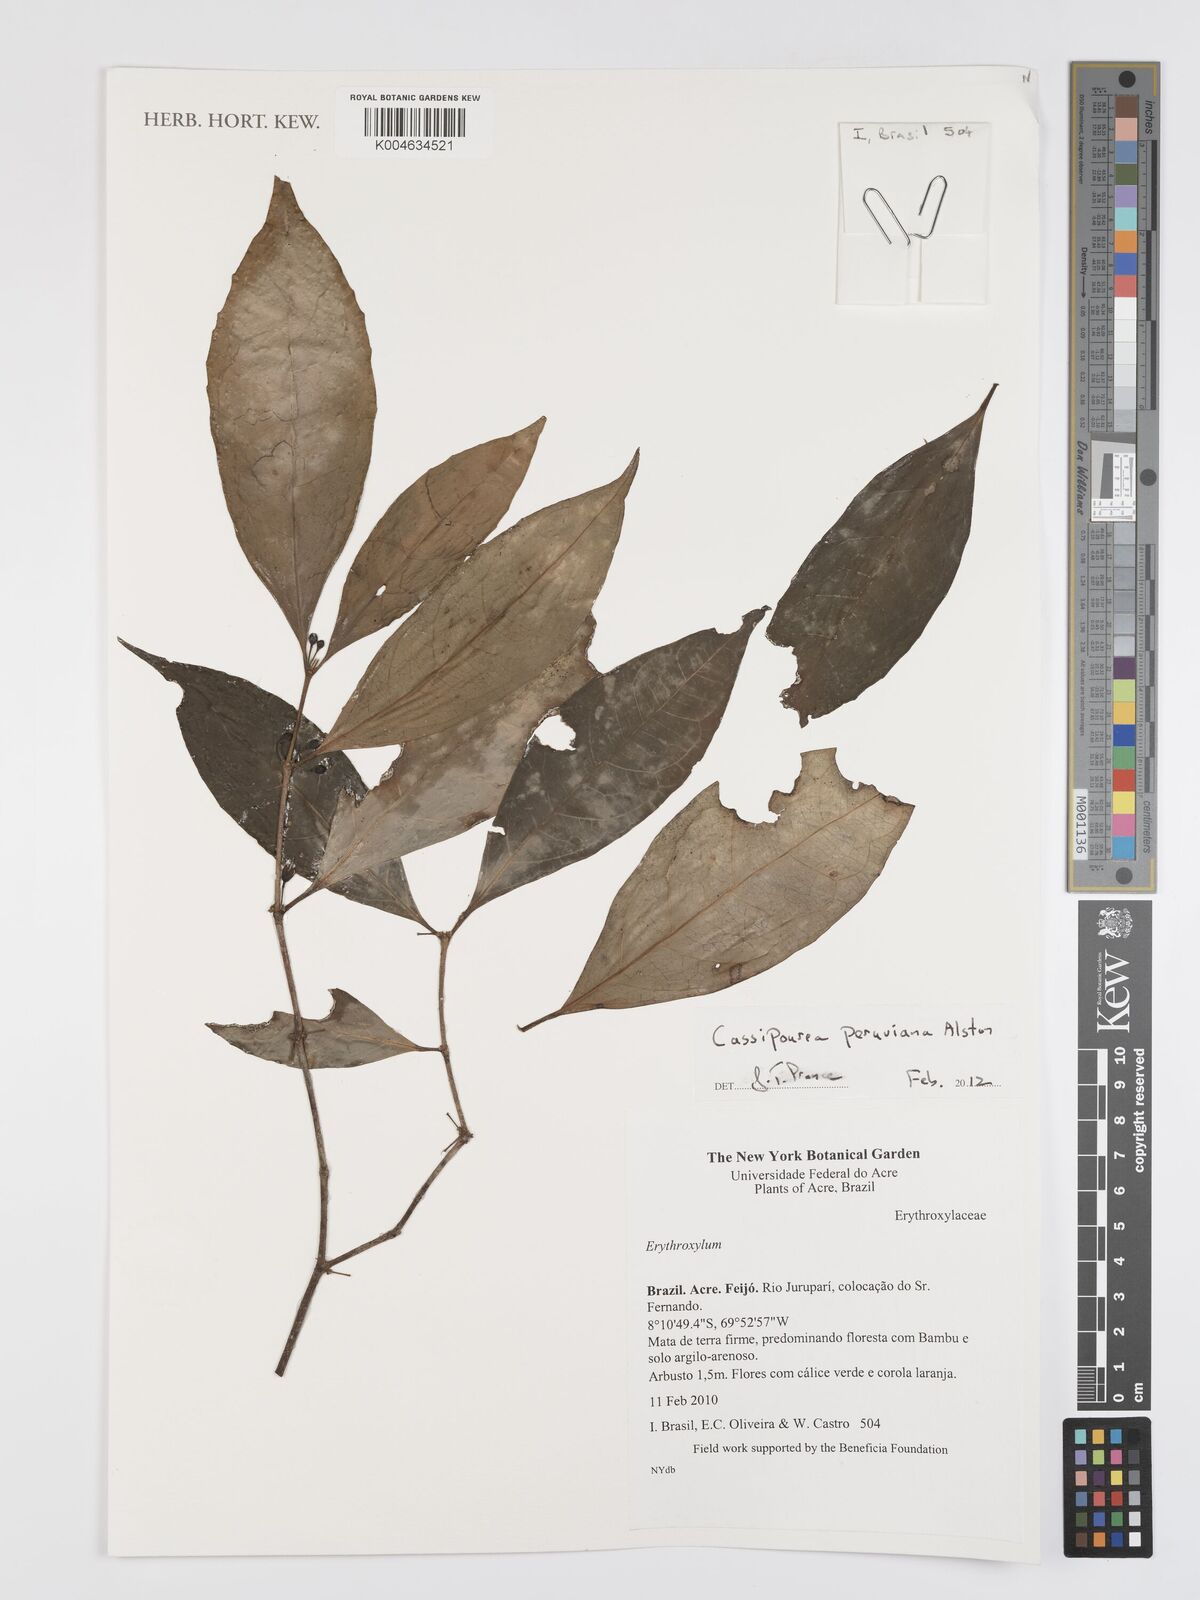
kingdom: Plantae
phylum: Tracheophyta
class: Magnoliopsida
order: Malpighiales
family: Rhizophoraceae
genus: Cassipourea
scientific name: Cassipourea peruviana
